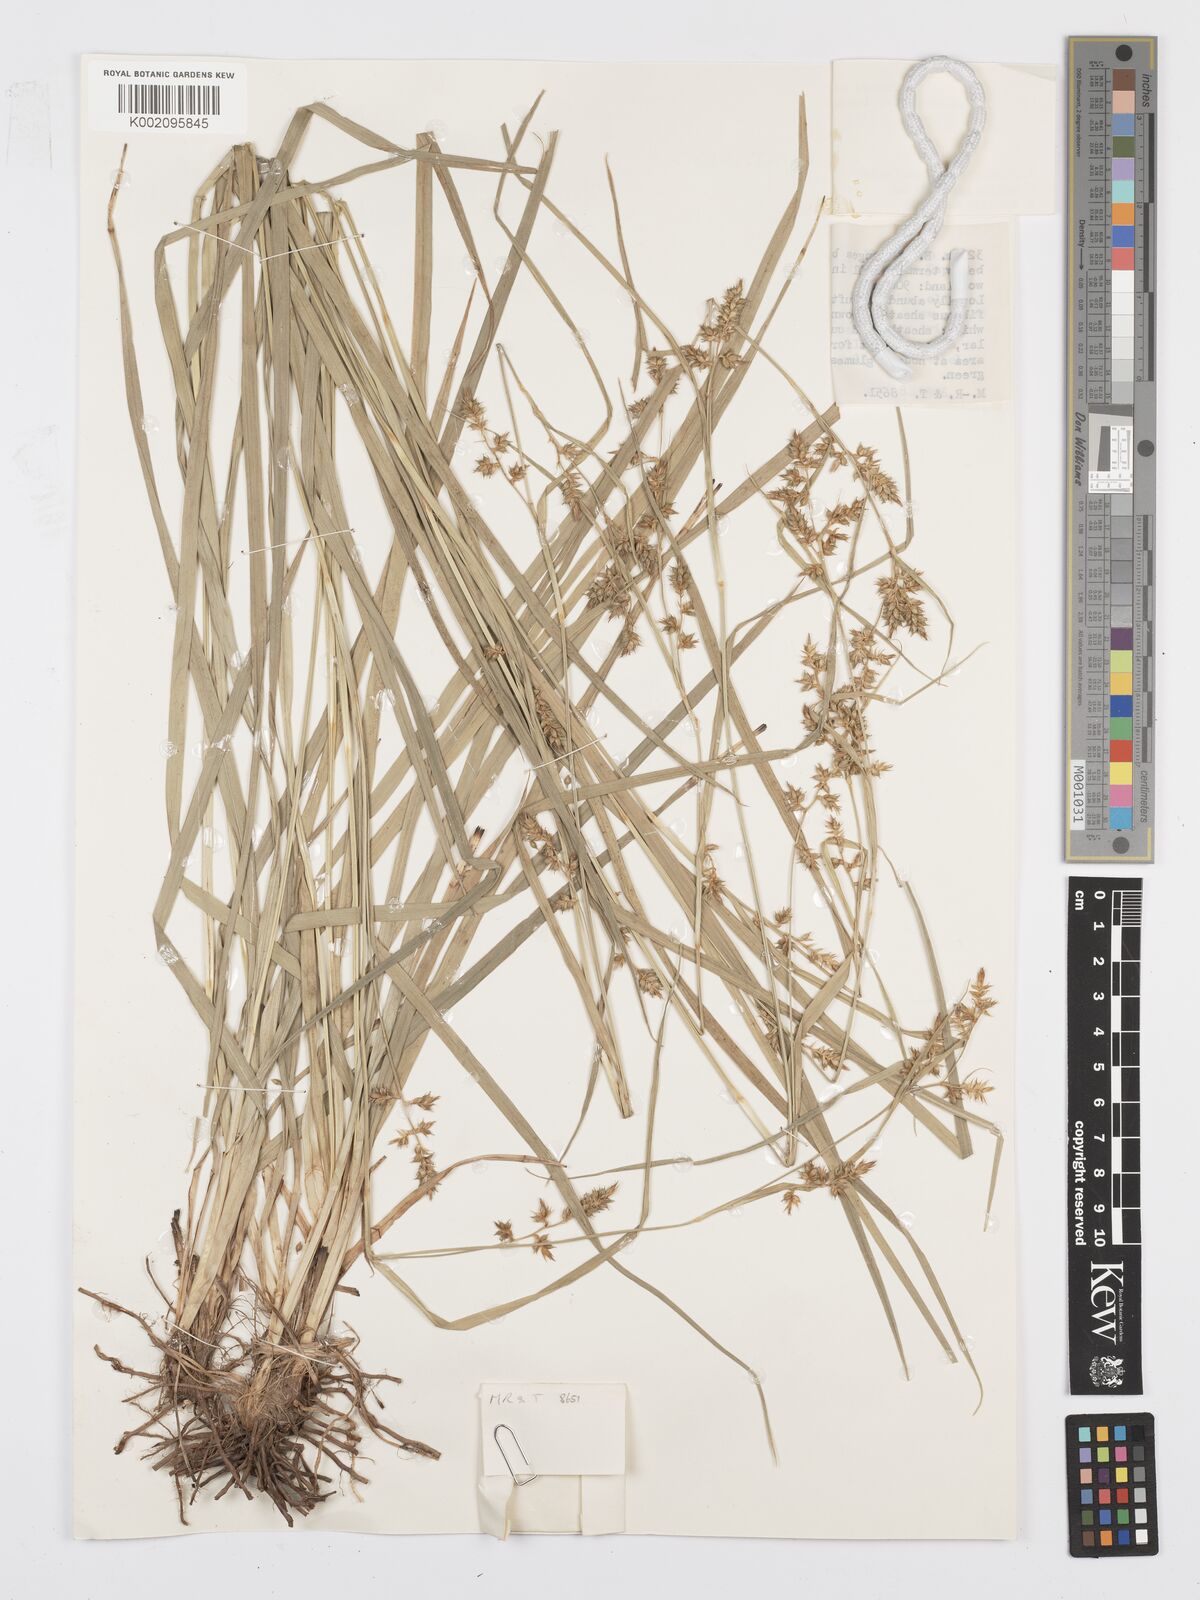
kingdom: Plantae
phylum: Tracheophyta
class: Liliopsida
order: Poales
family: Cyperaceae
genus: Carex
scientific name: Carex echinochloe
